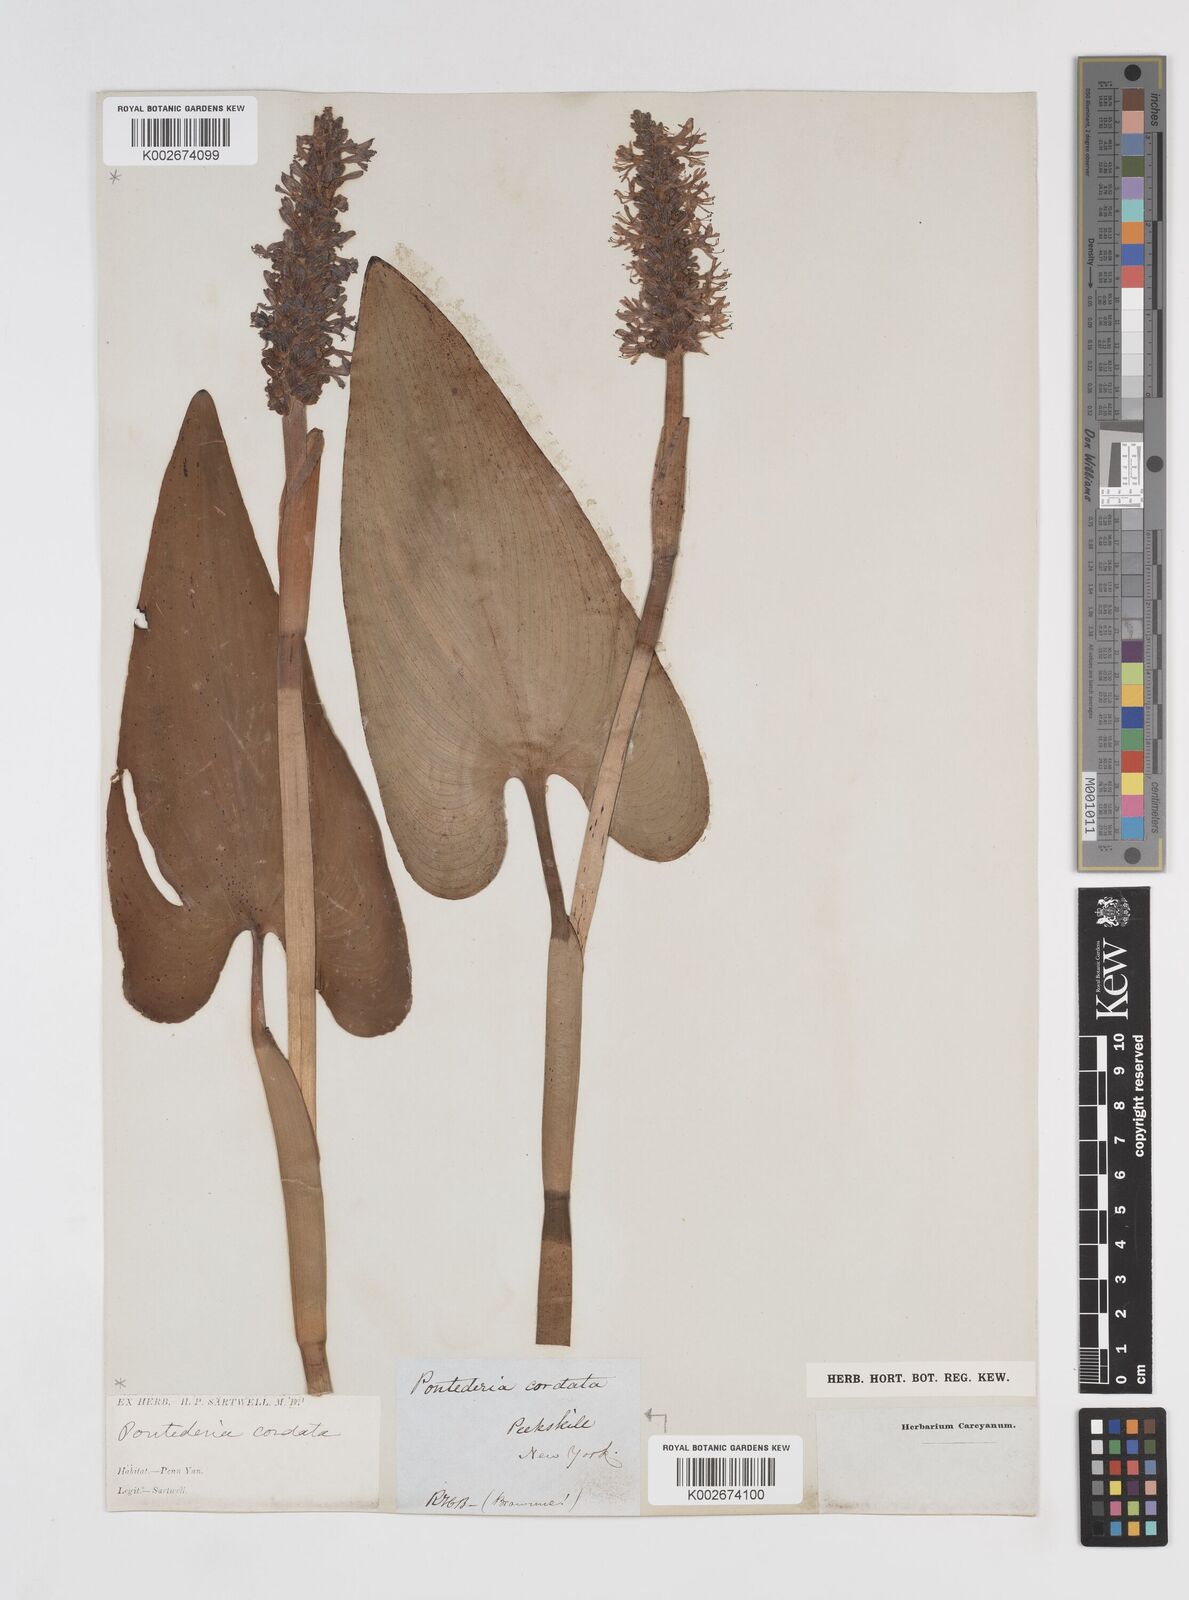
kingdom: Plantae
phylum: Tracheophyta
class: Liliopsida
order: Commelinales
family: Pontederiaceae
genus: Pontederia
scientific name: Pontederia cordata
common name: Pickerelweed
